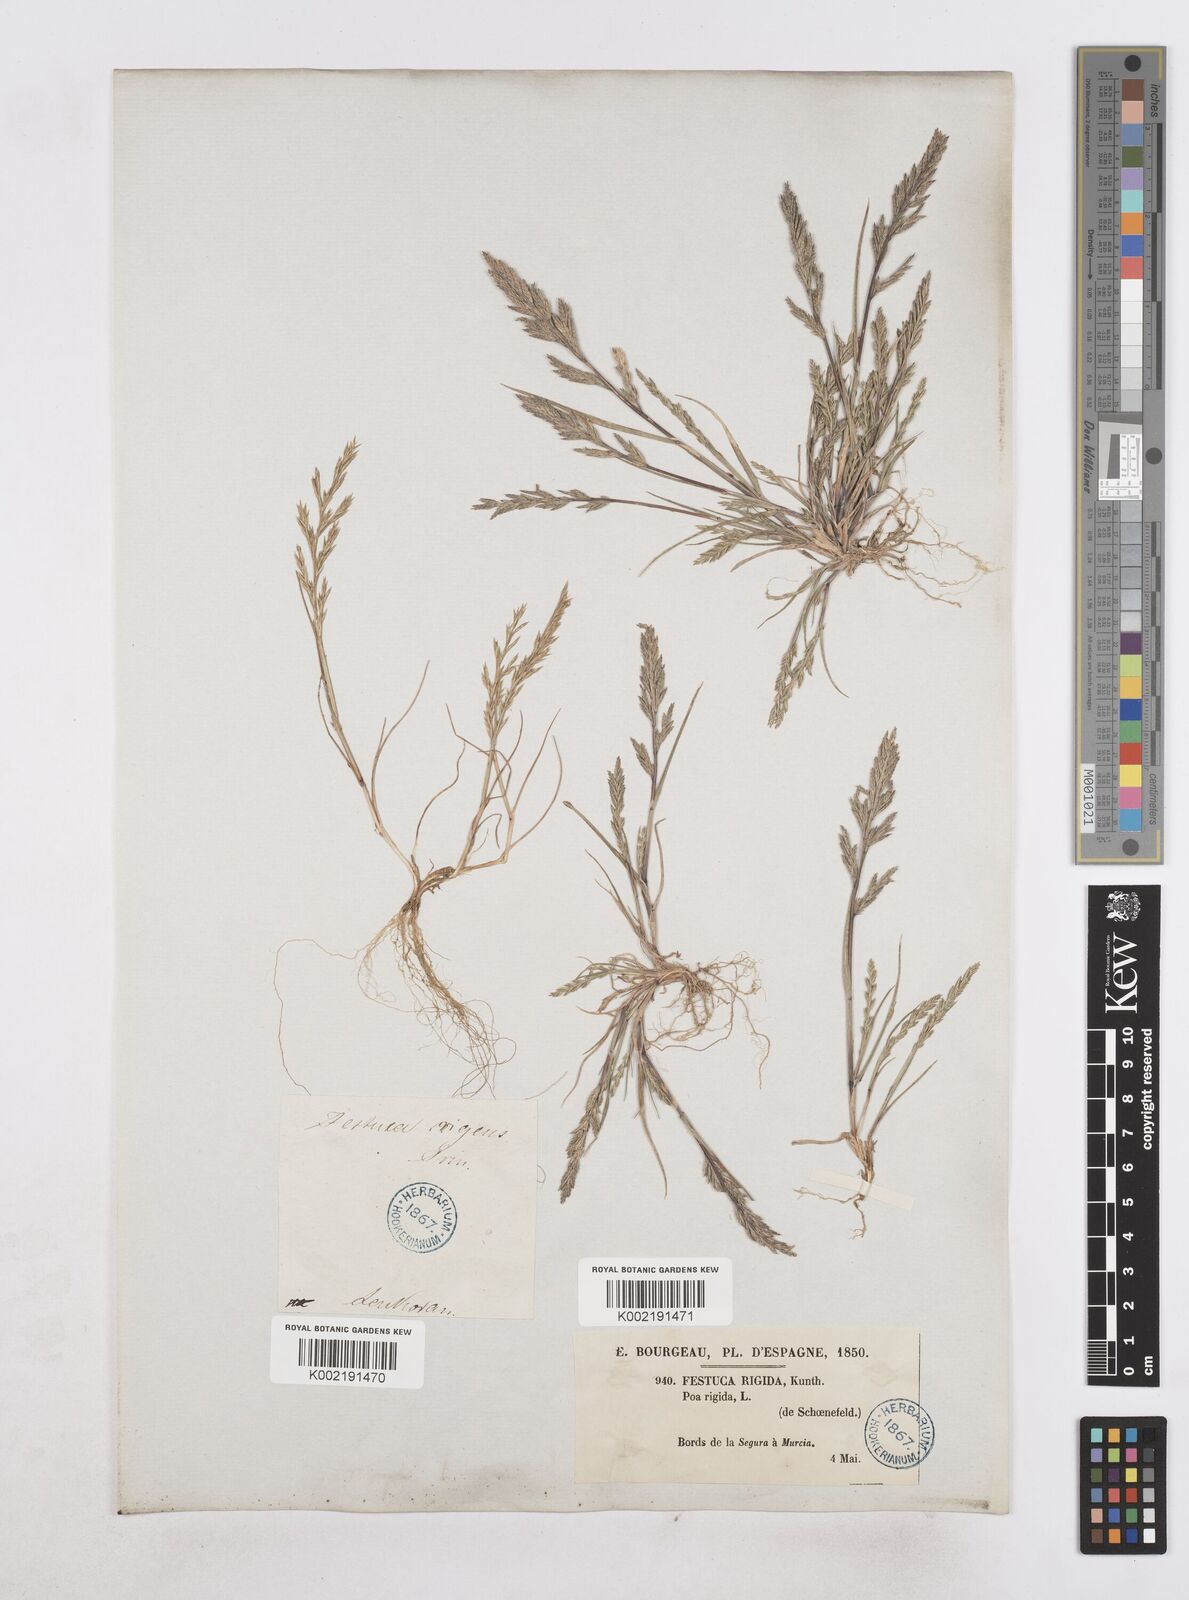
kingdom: Plantae
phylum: Tracheophyta
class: Liliopsida
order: Poales
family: Poaceae
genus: Catapodium
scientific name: Catapodium rigidum
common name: Fern-grass
